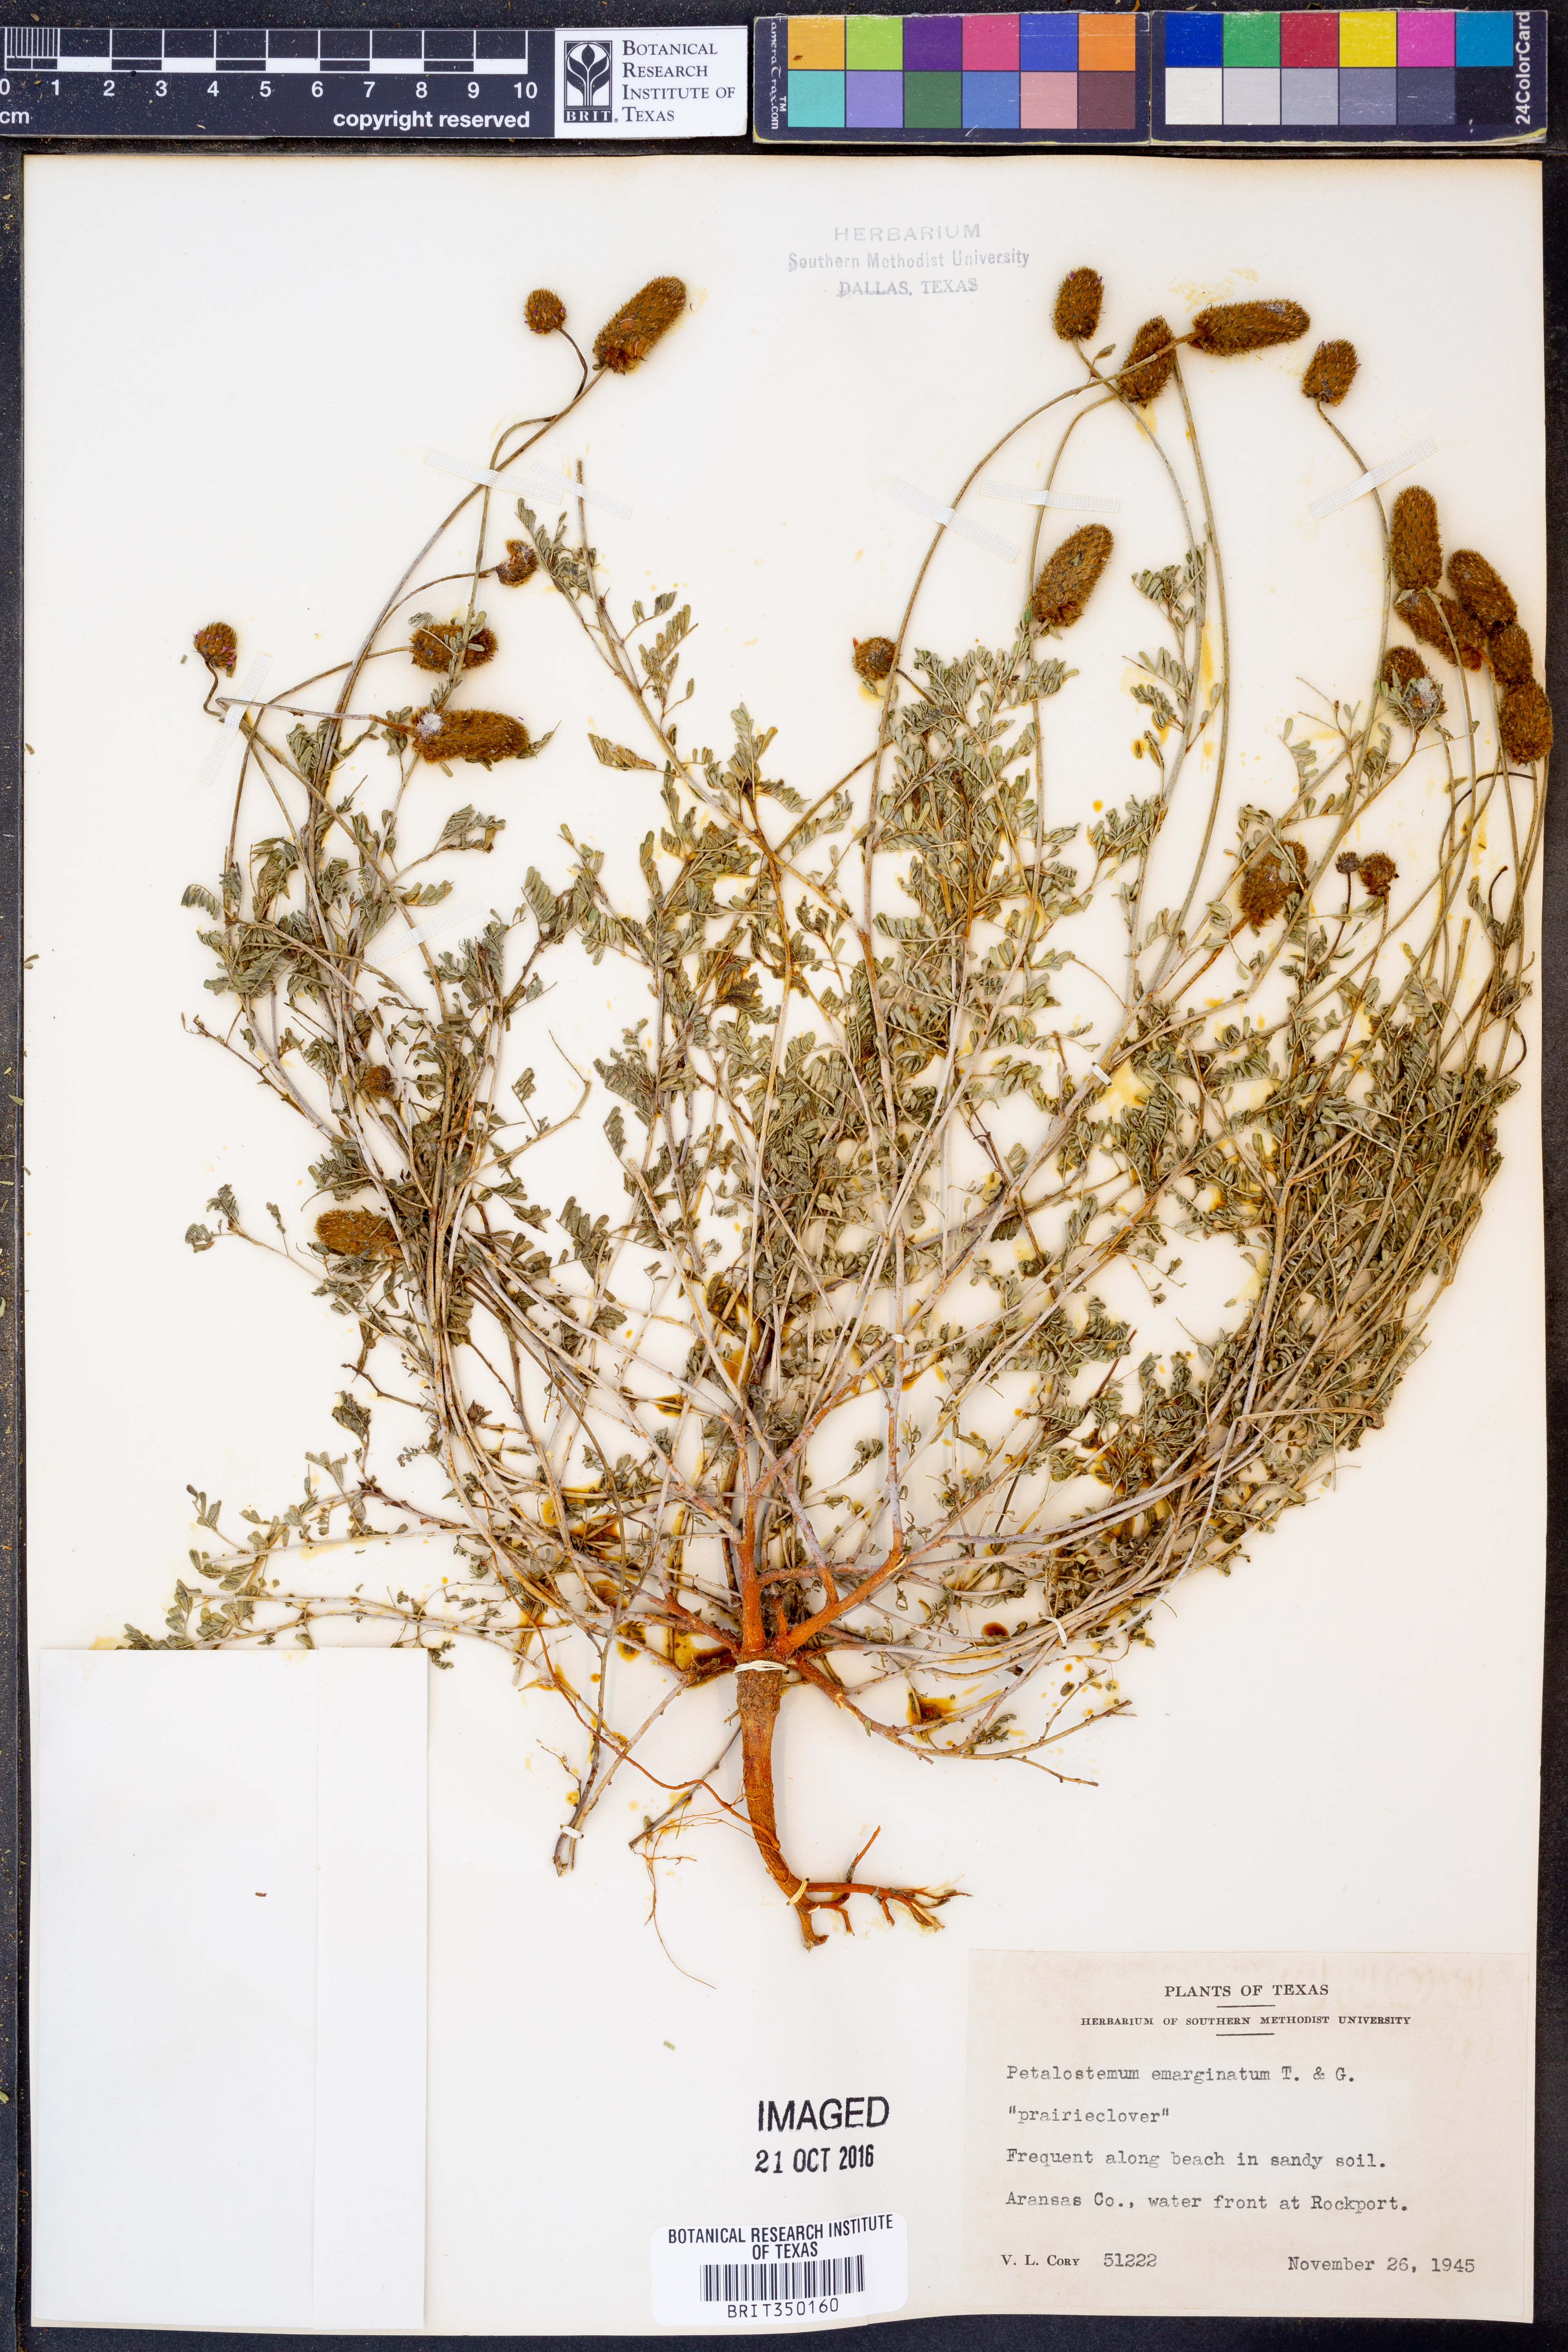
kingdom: Plantae
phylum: Tracheophyta
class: Magnoliopsida
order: Fabales
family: Fabaceae
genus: Dalea
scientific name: Dalea emarginata
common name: Wedgeleaf prairie clover
